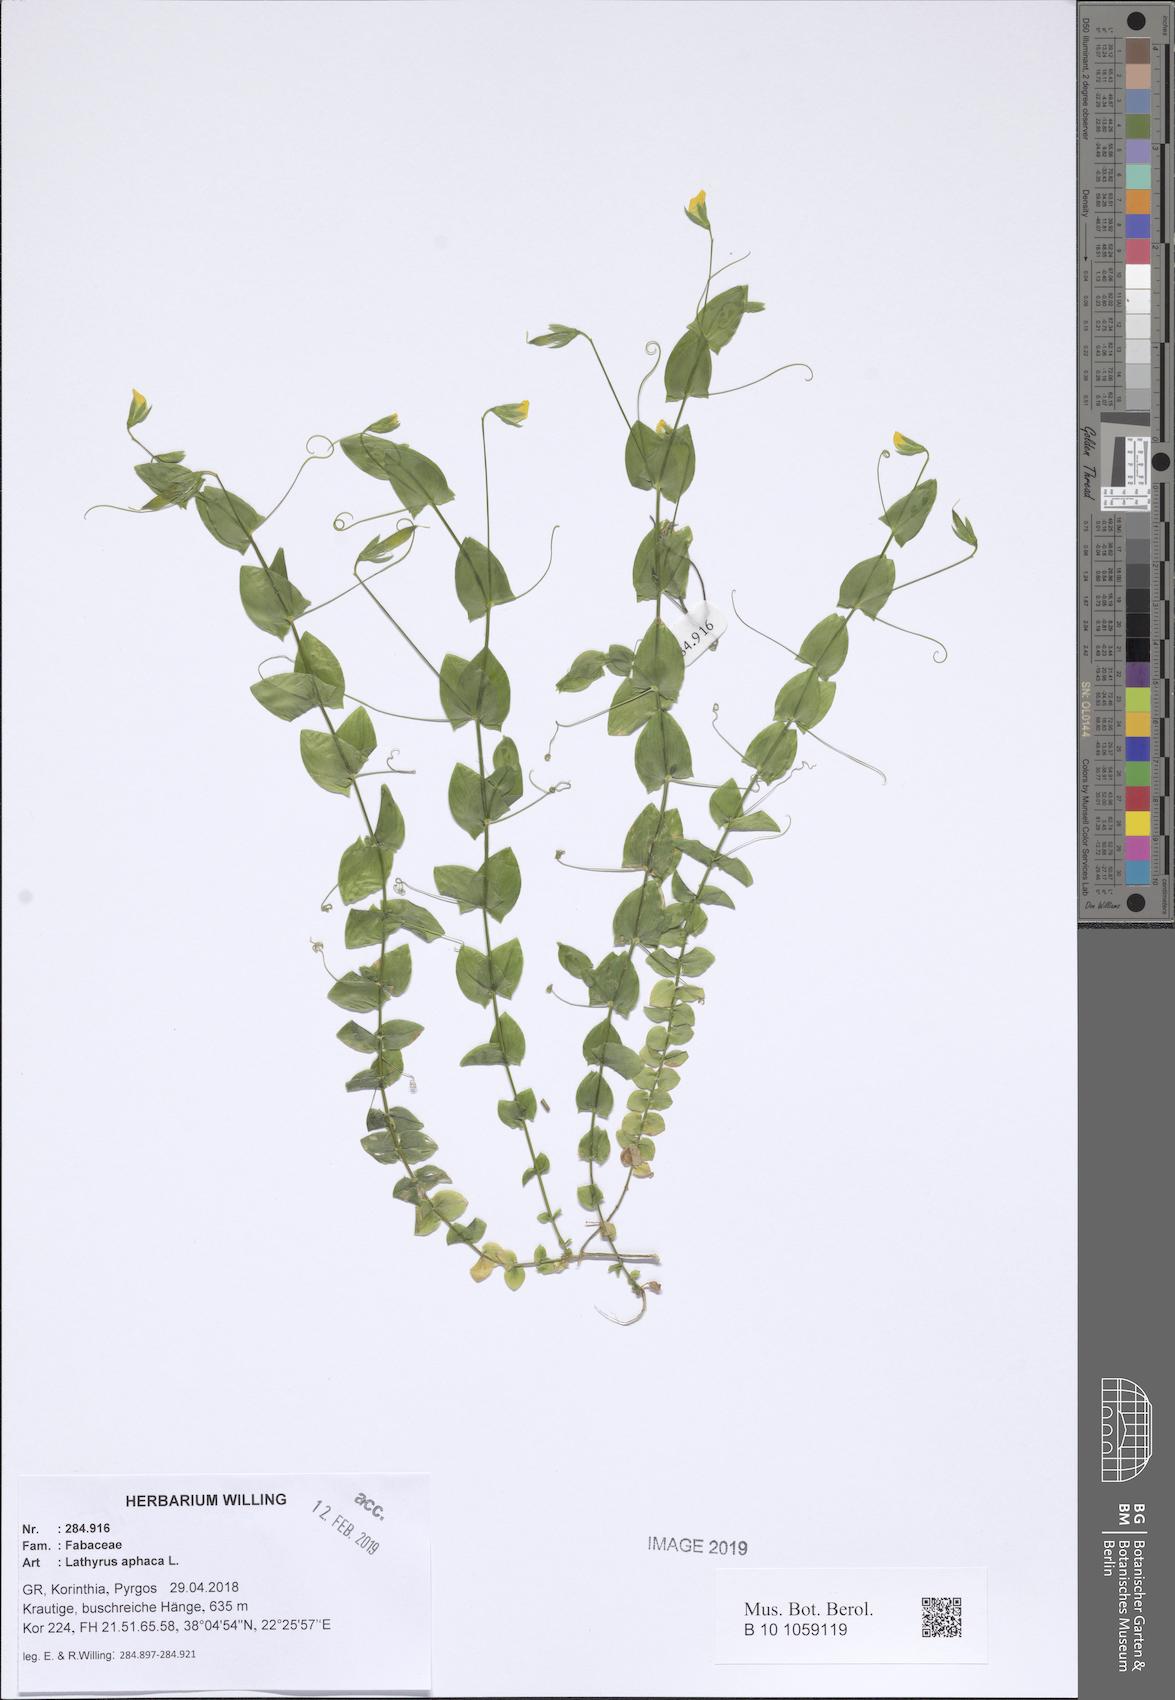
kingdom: Plantae
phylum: Tracheophyta
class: Magnoliopsida
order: Fabales
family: Fabaceae
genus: Lathyrus
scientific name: Lathyrus aphaca
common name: Yellow vetchling
